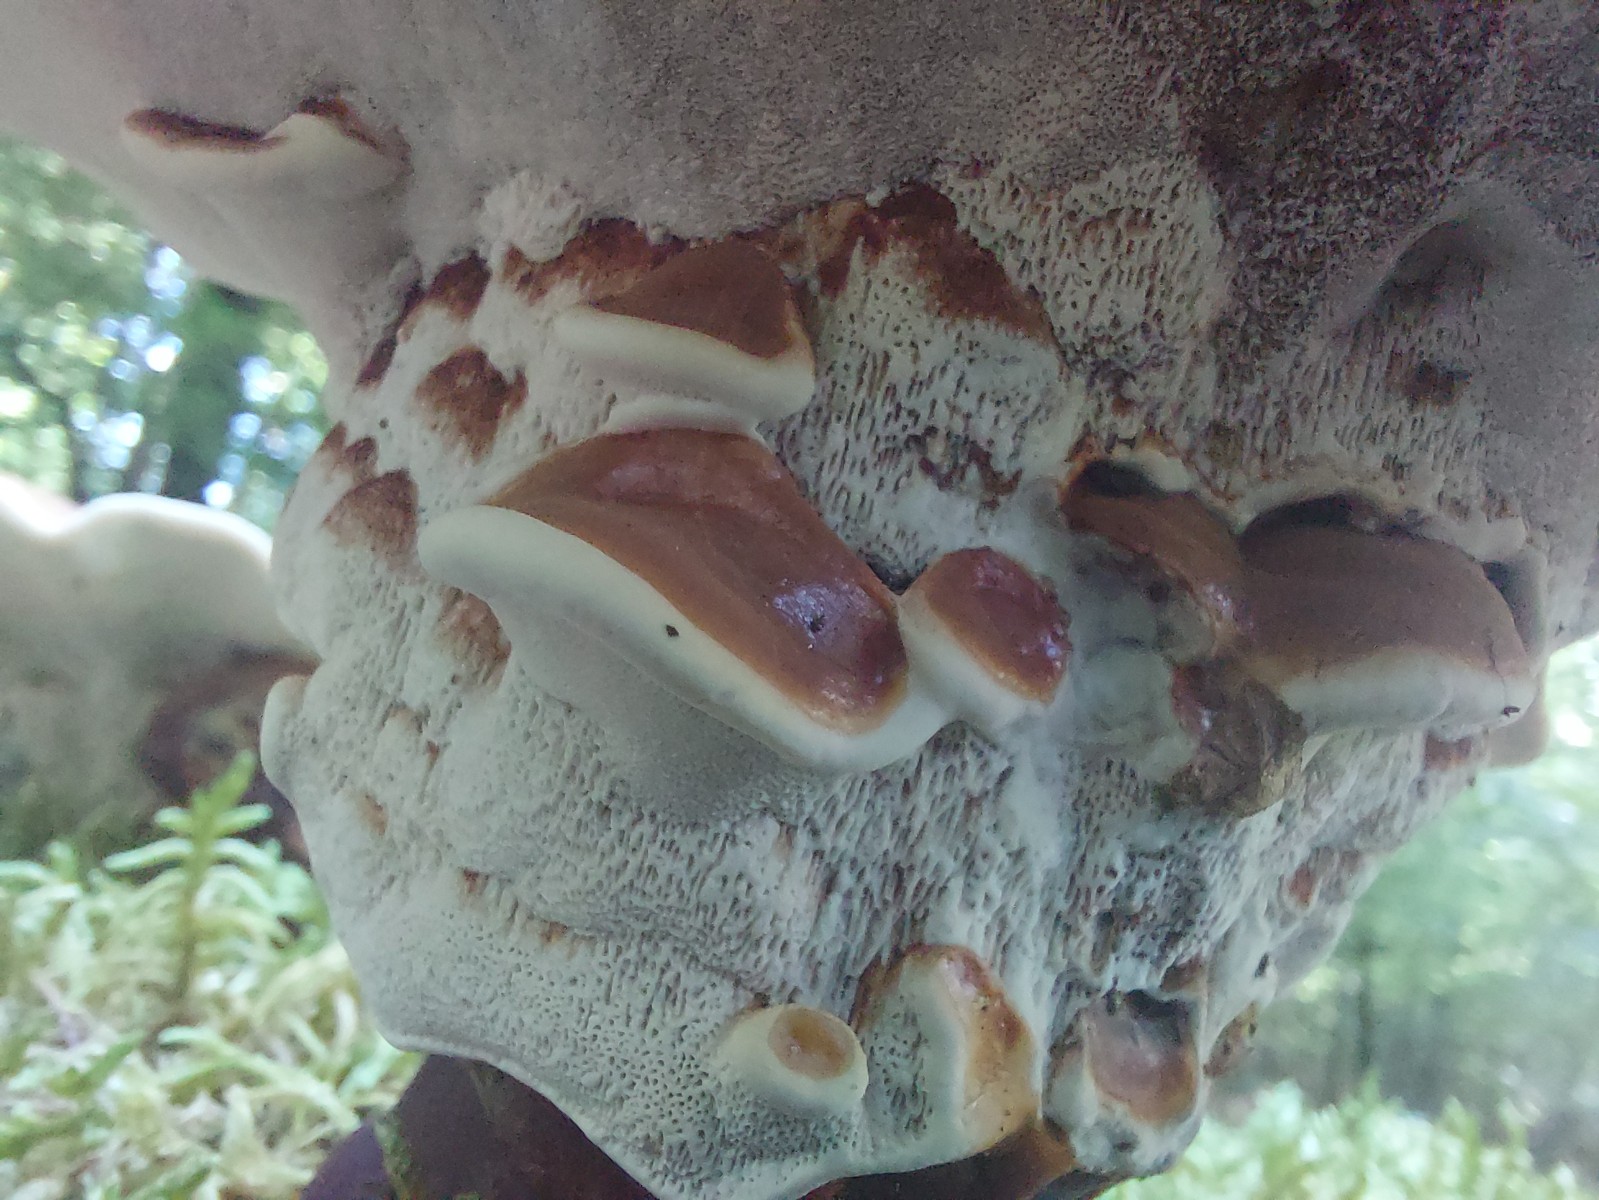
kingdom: Fungi
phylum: Basidiomycota
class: Agaricomycetes
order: Polyporales
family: Polyporaceae
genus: Ganoderma
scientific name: Ganoderma lucidum
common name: skinnende lakporesvamp
